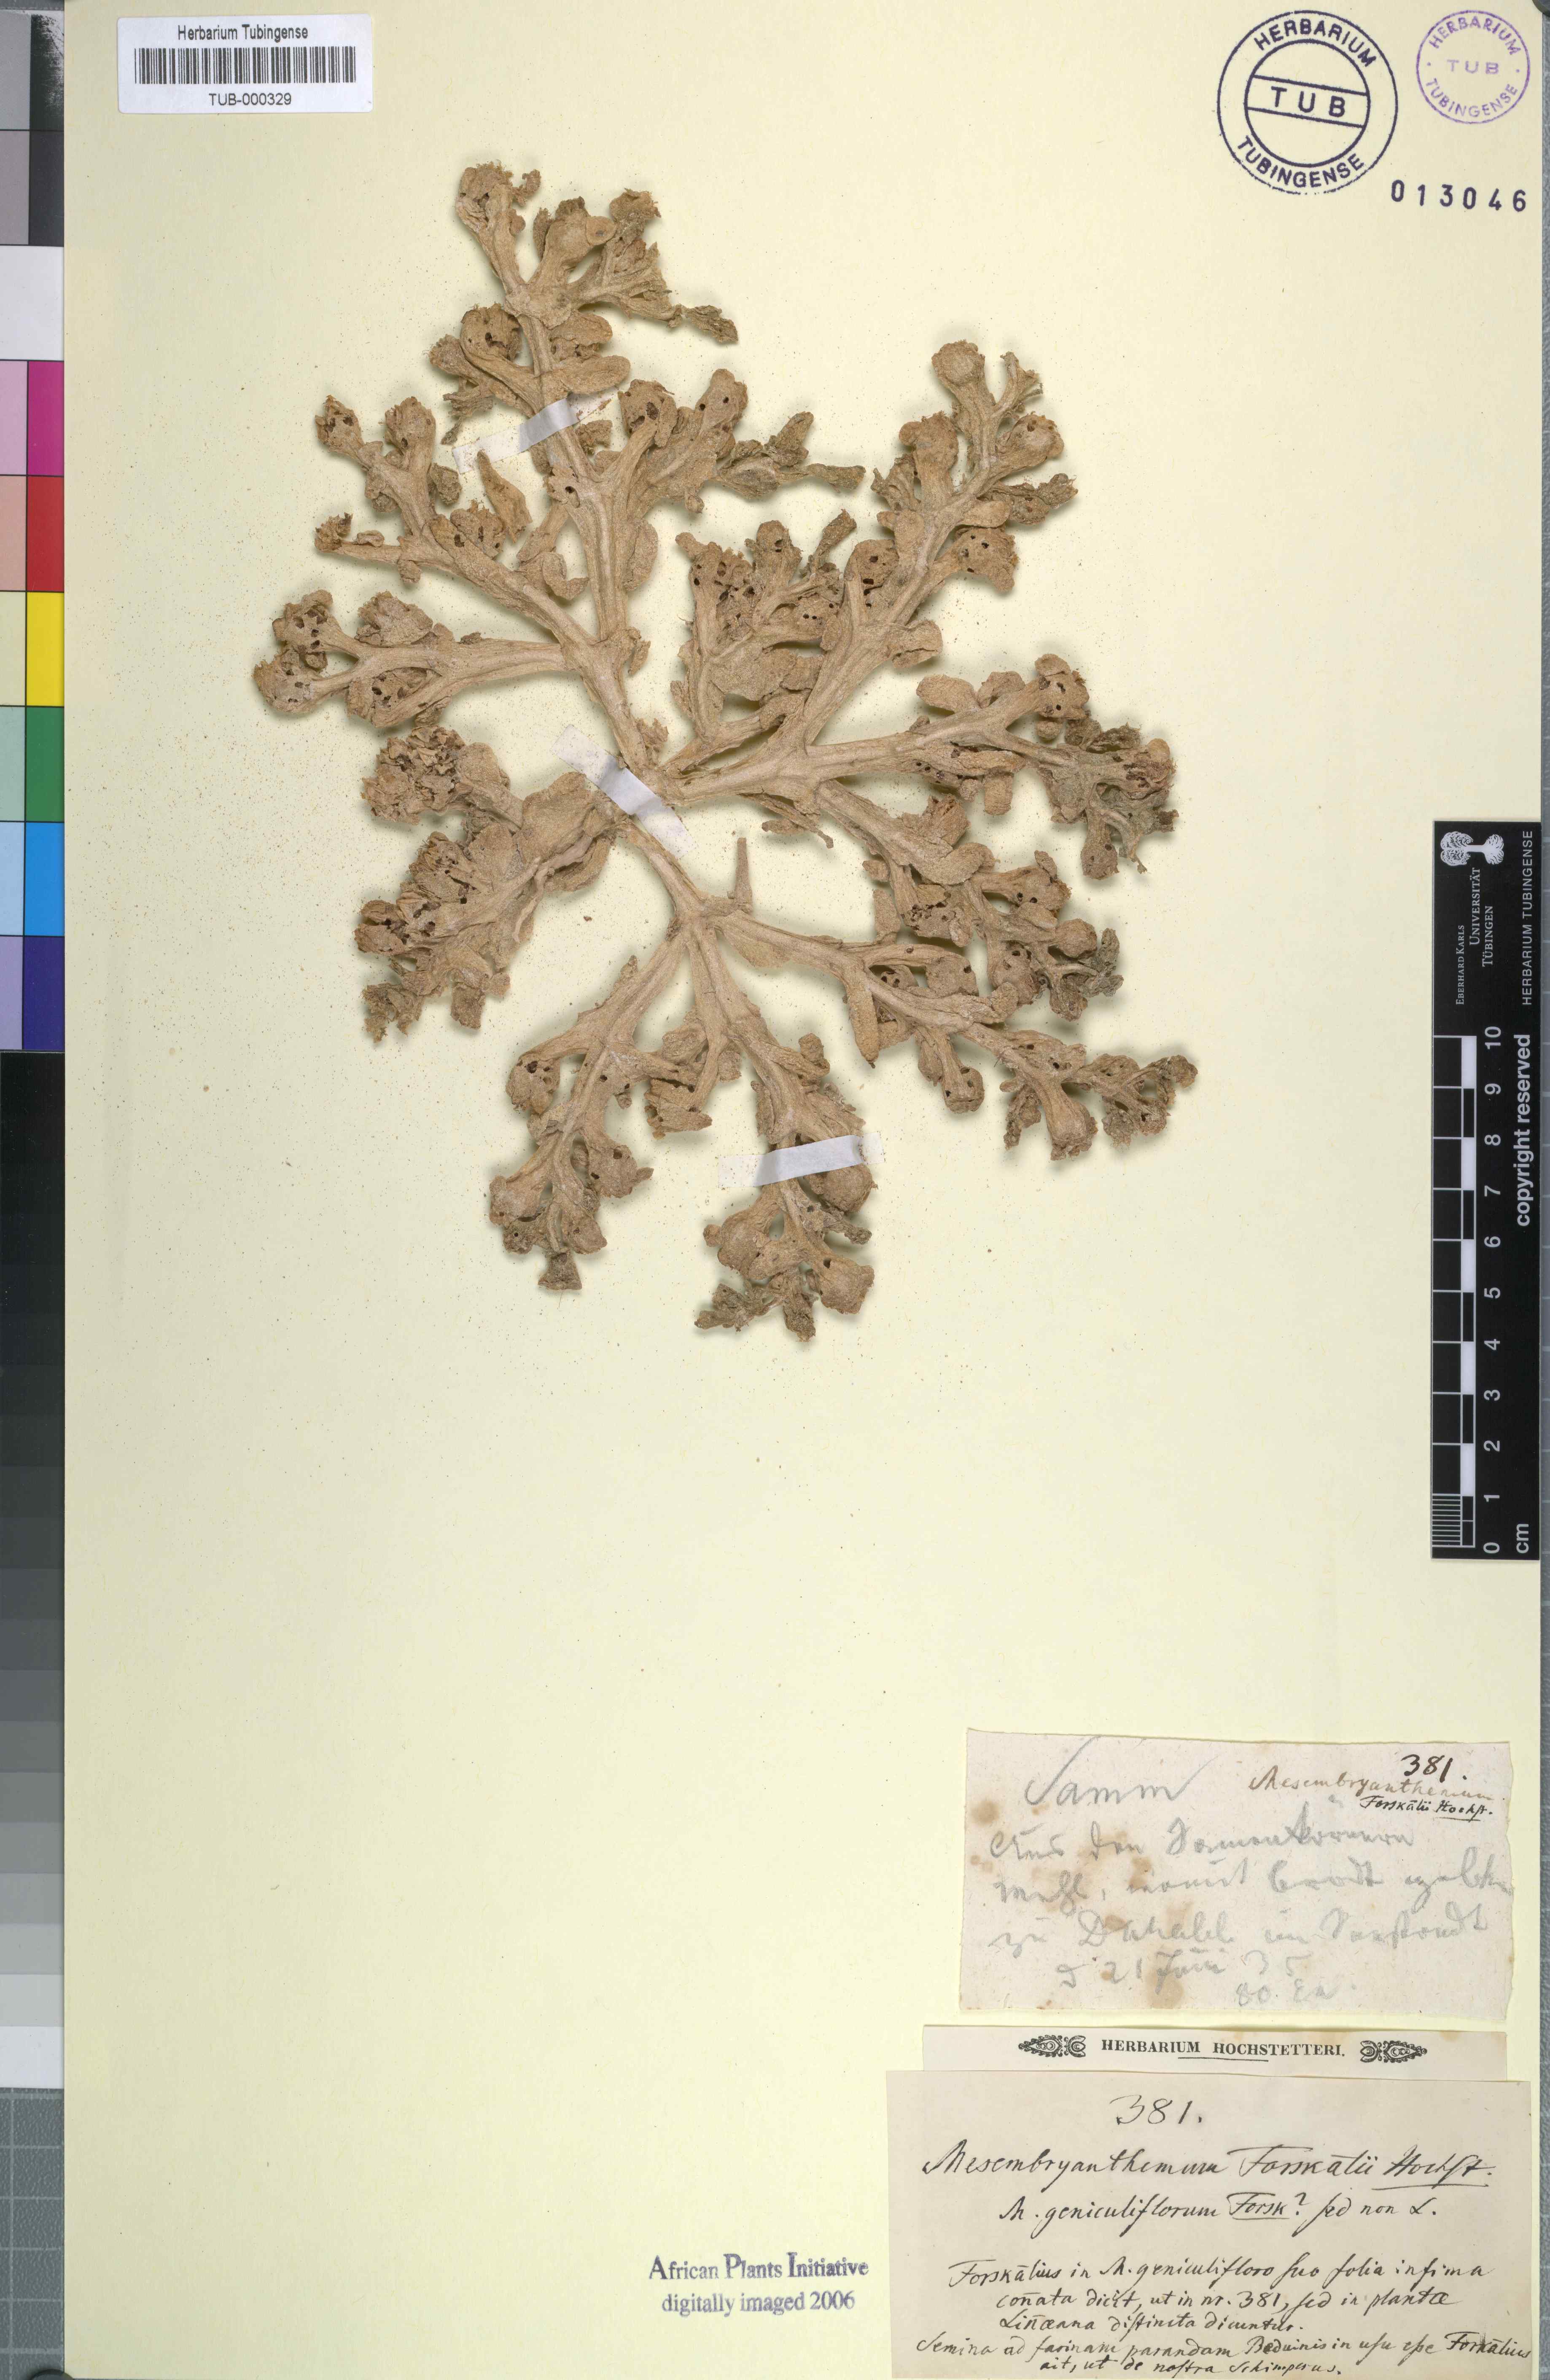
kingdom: Plantae
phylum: Tracheophyta
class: Magnoliopsida
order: Caryophyllales
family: Aizoaceae
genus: Mesembryanthemum
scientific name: Mesembryanthemum cryptanthum
